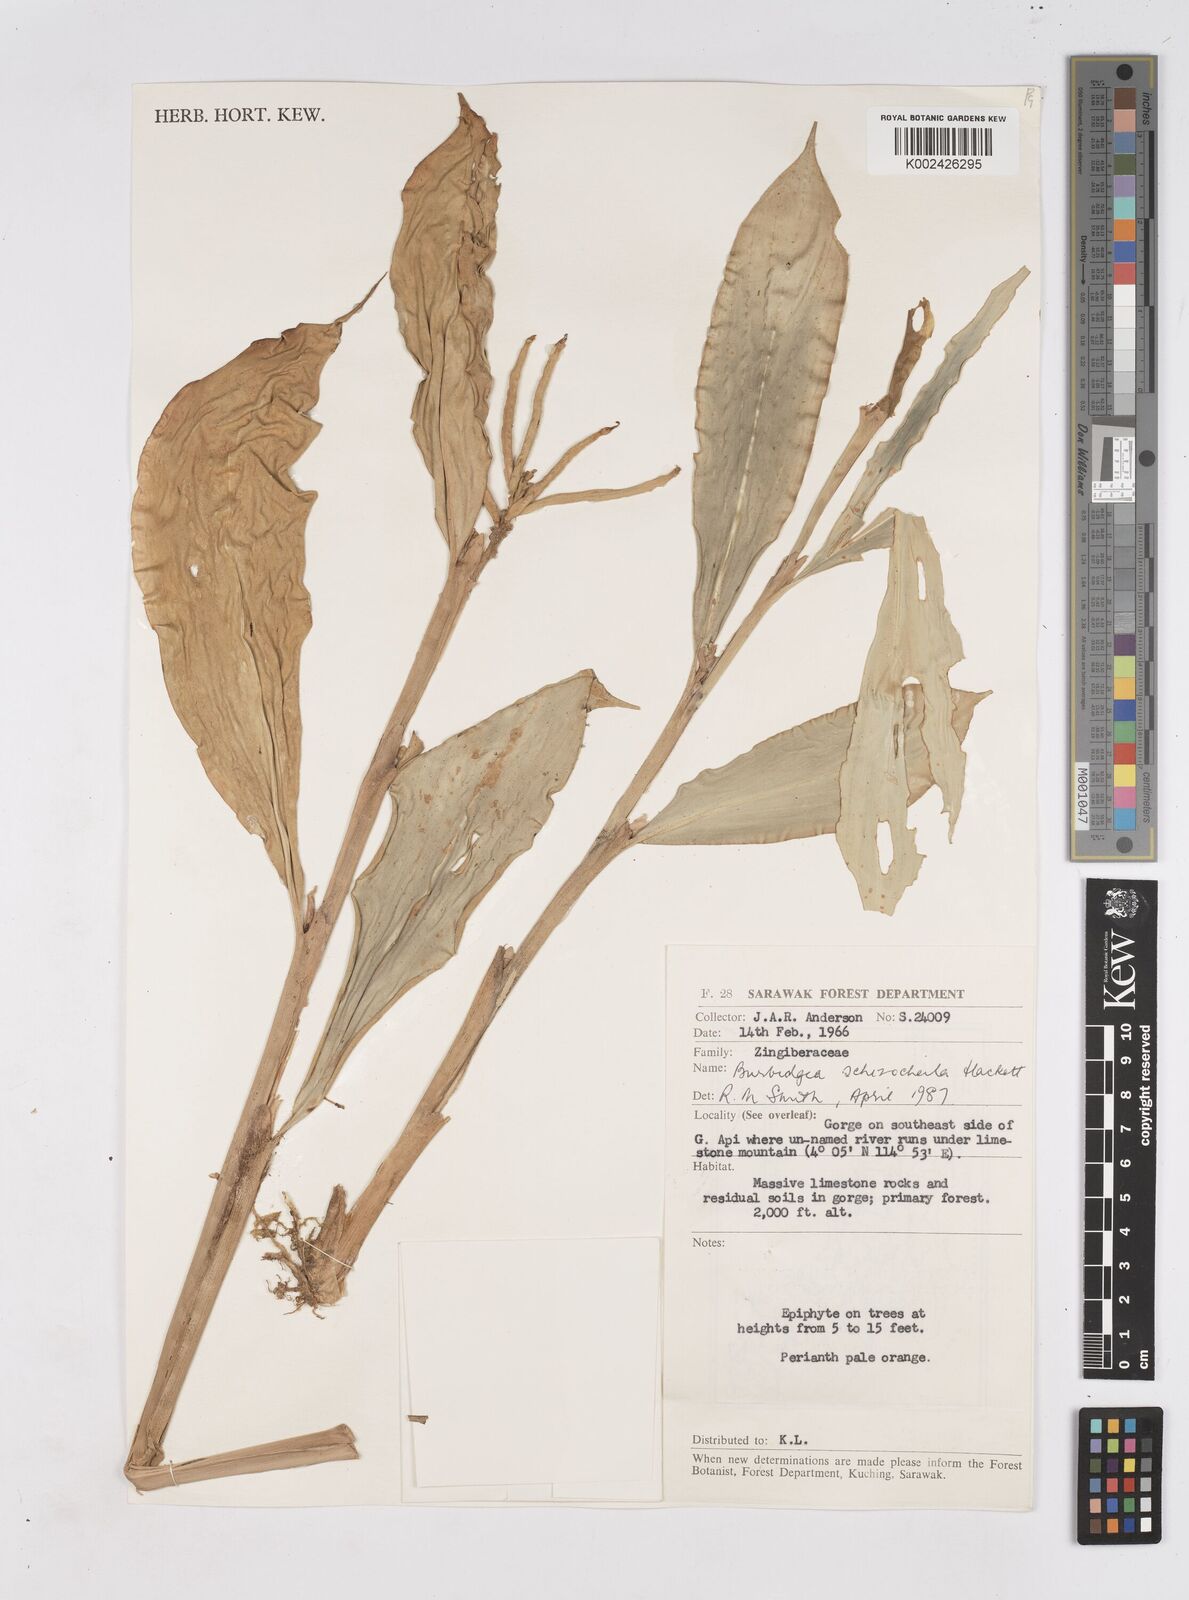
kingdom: Plantae
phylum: Tracheophyta
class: Liliopsida
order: Zingiberales
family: Zingiberaceae
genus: Burbidgea
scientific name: Burbidgea schizocheila
